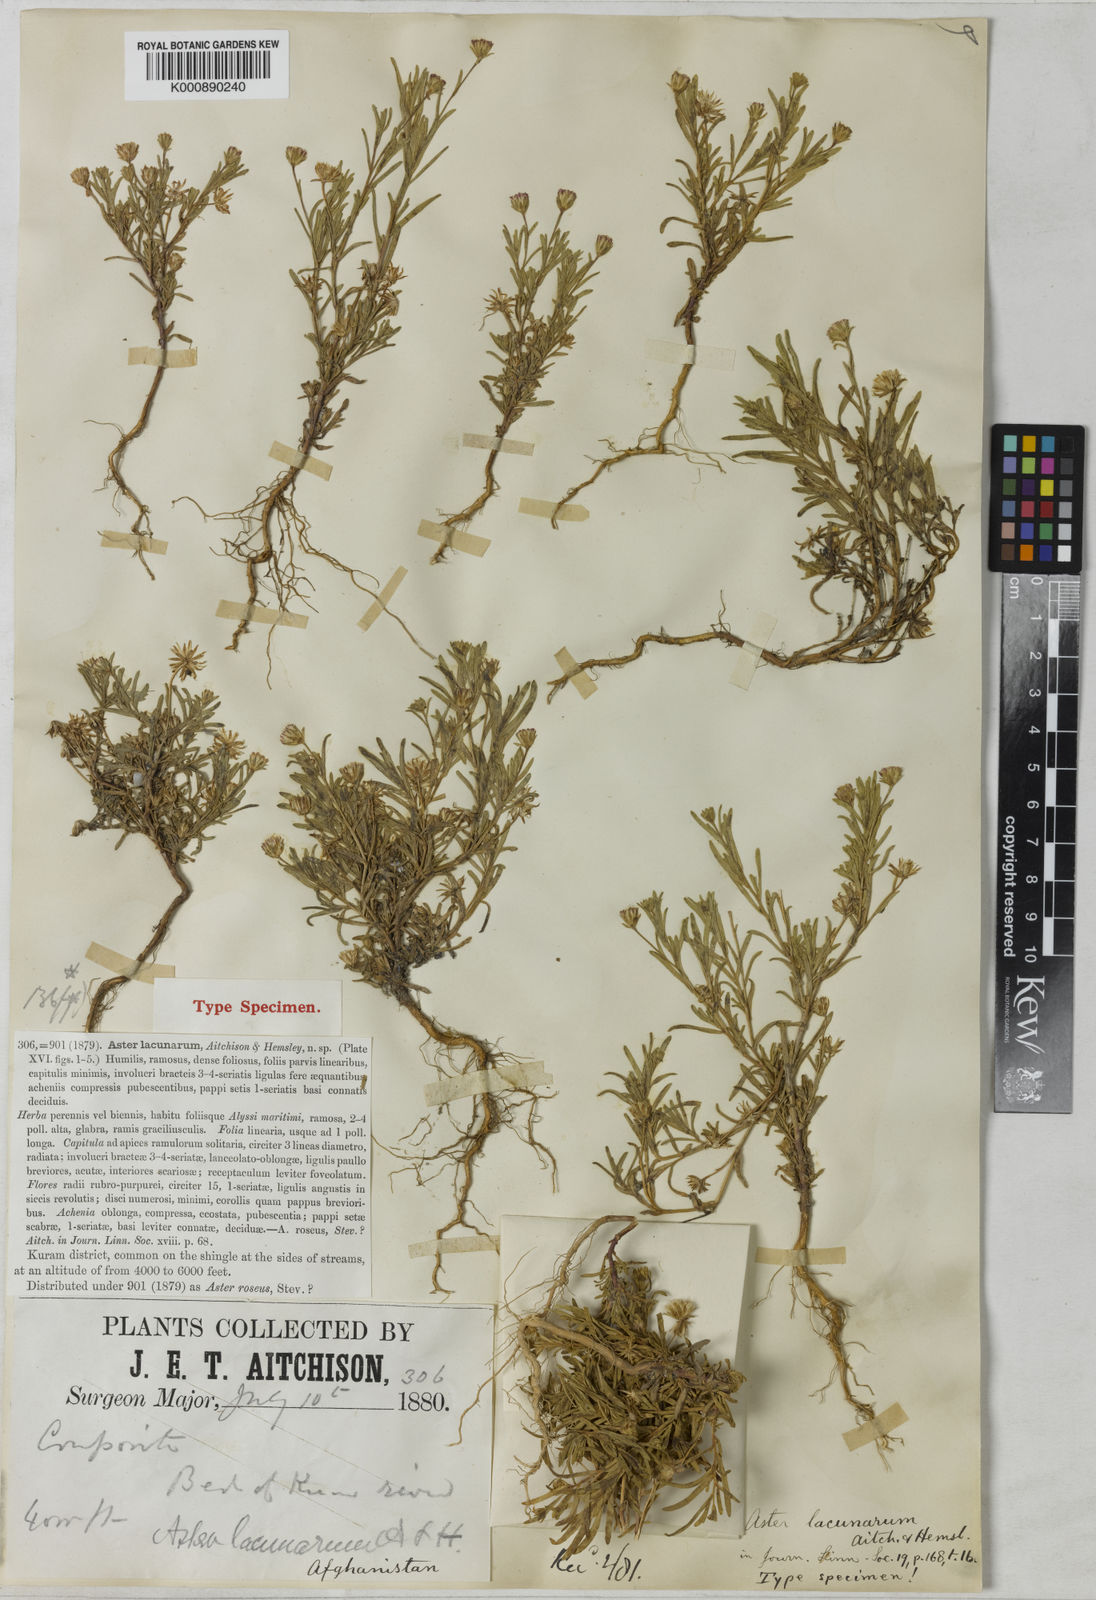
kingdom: Plantae
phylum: Tracheophyta
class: Magnoliopsida
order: Asterales
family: Asteraceae
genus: Chamaegeron
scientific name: Chamaegeron oligocephalus
